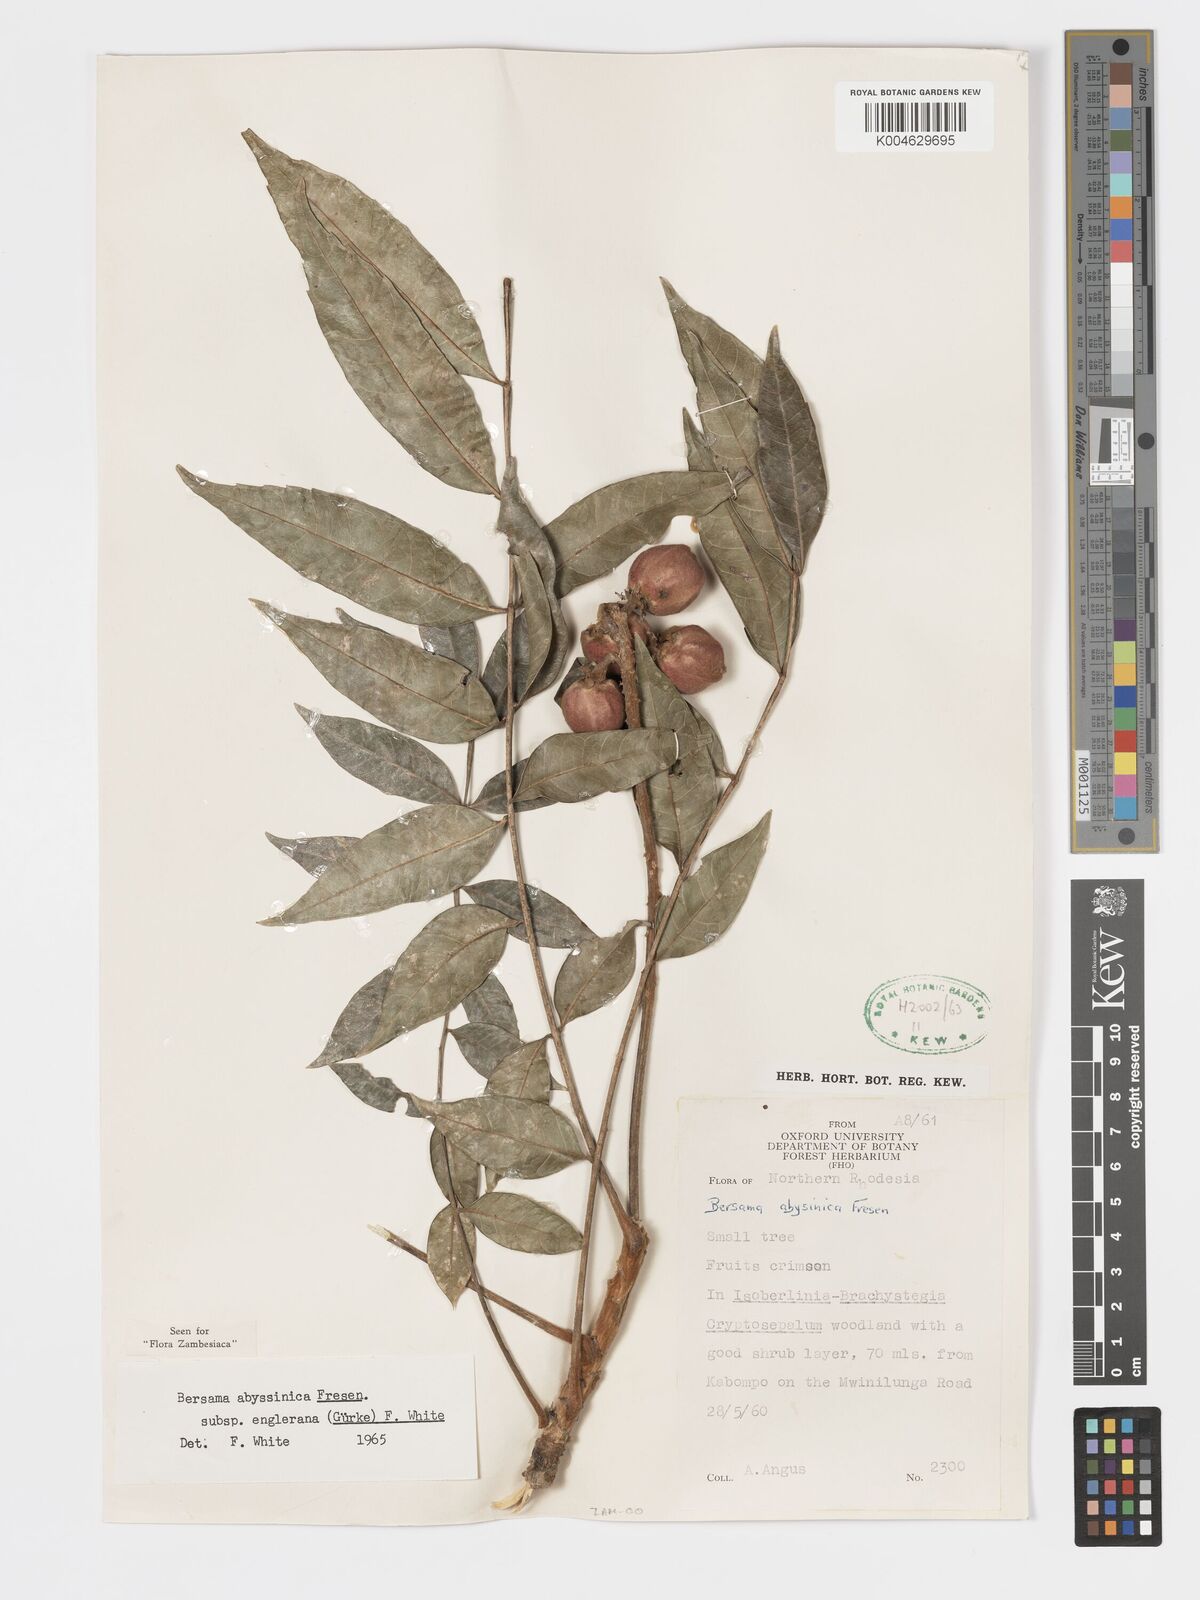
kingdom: Plantae
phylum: Tracheophyta
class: Magnoliopsida
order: Geraniales
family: Melianthaceae
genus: Bersama
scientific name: Bersama abyssinica
